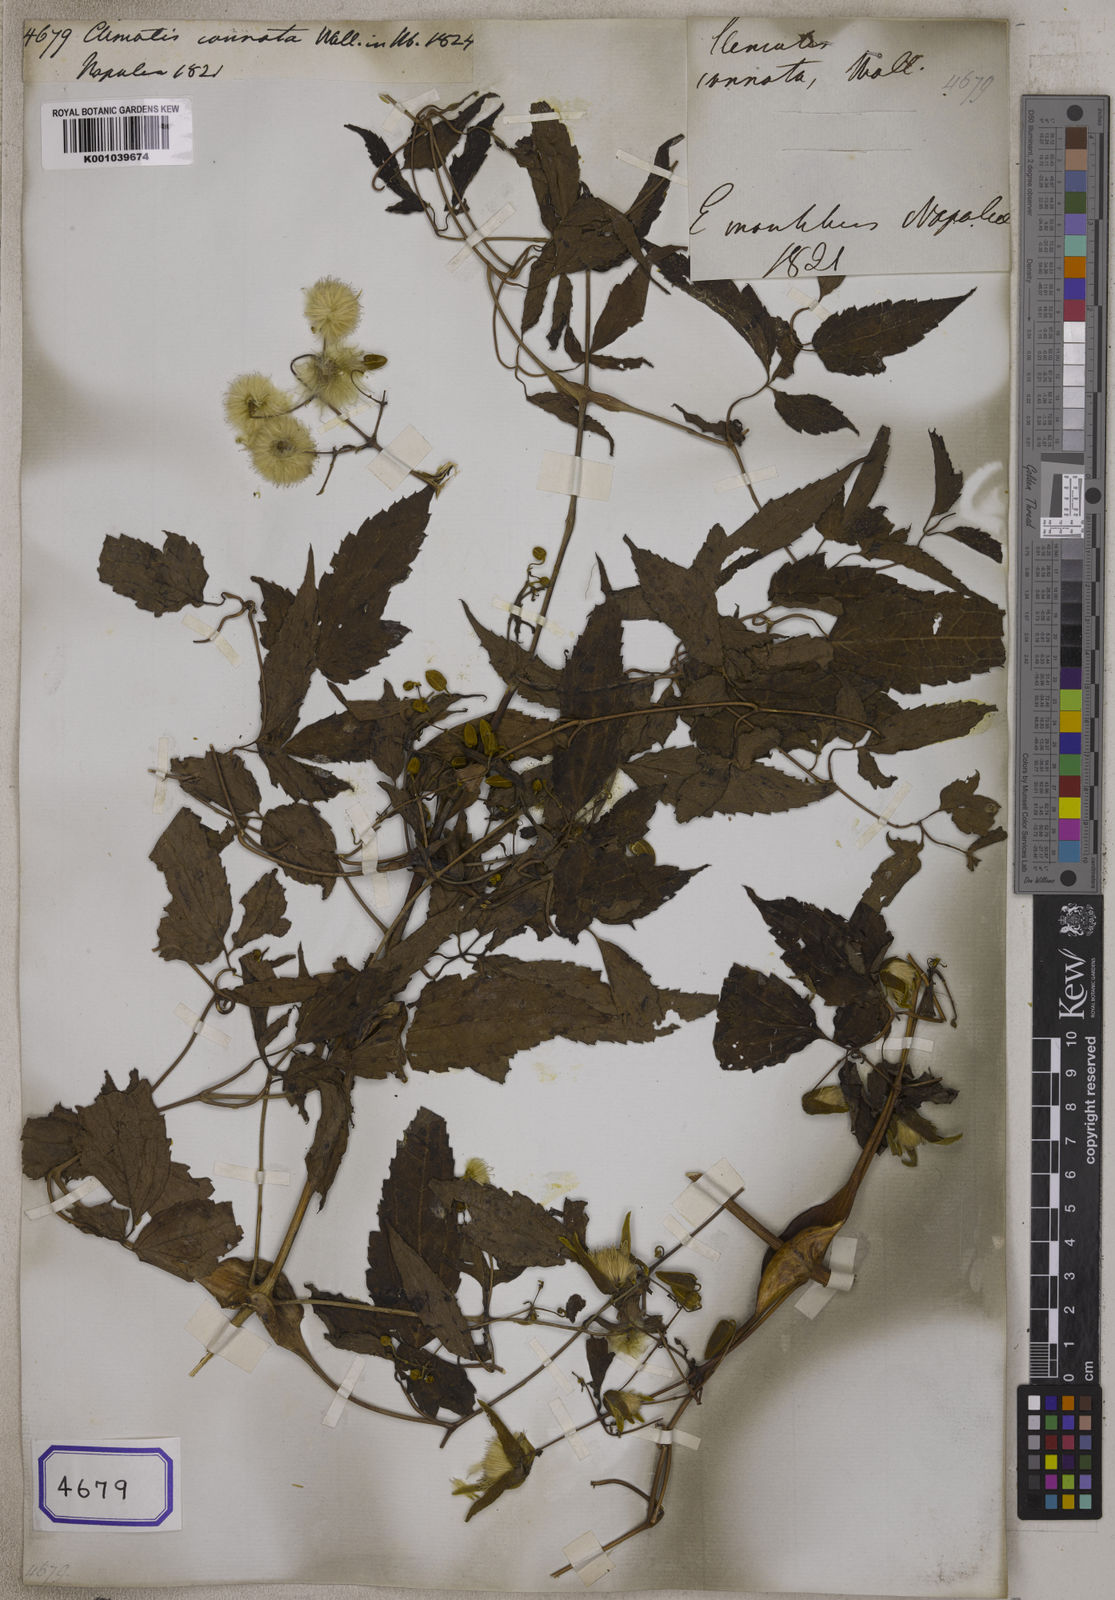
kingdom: Plantae
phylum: Tracheophyta
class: Magnoliopsida
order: Ranunculales
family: Ranunculaceae
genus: Clematis
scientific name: Clematis connata
